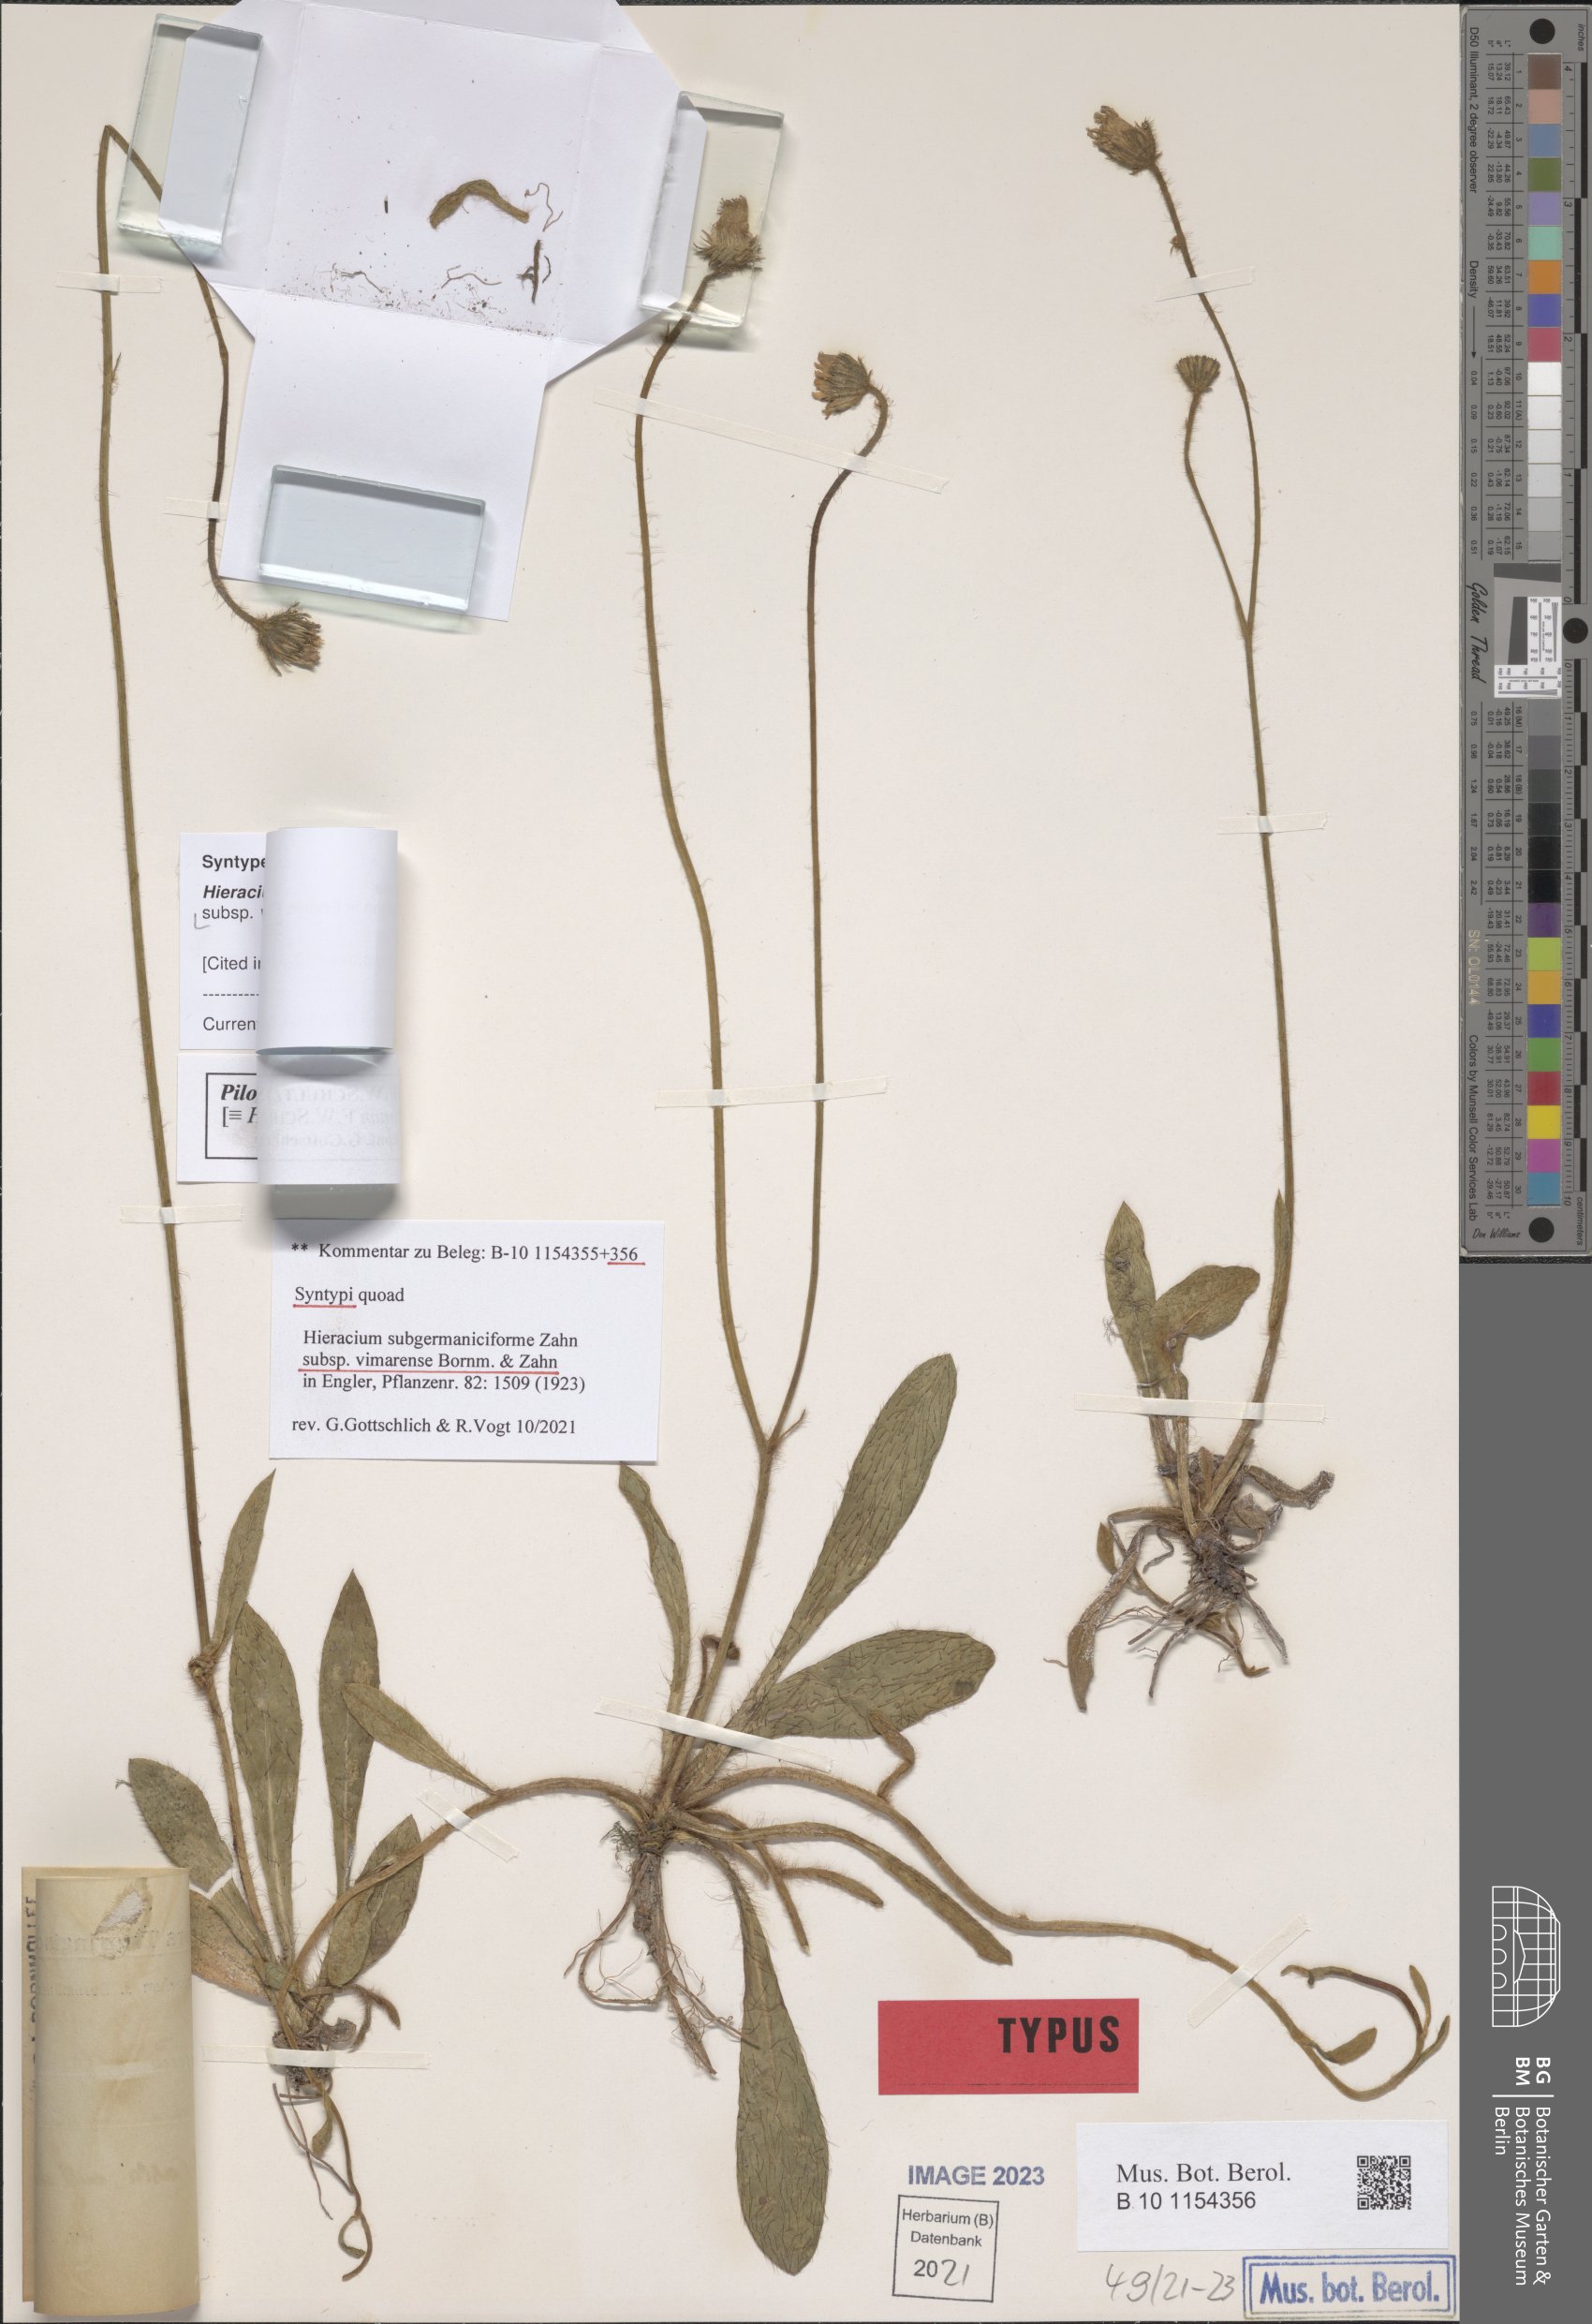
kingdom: Plantae
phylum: Tracheophyta
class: Magnoliopsida
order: Asterales
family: Asteraceae
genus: Pilosella
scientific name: Pilosella fallacina
